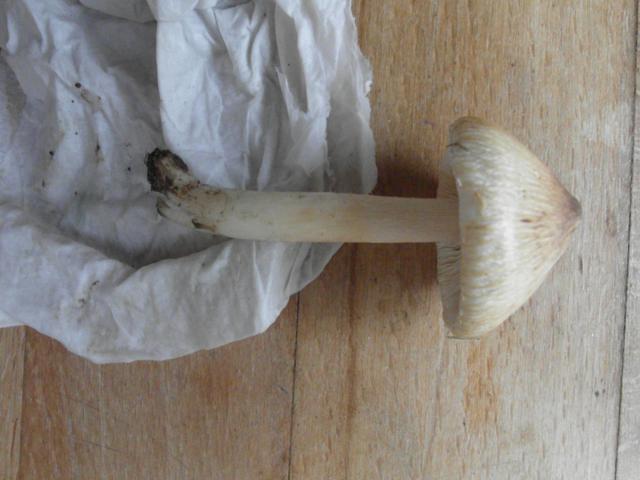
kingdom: Fungi
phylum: Basidiomycota
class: Agaricomycetes
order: Agaricales
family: Inocybaceae
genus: Pseudosperma
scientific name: Pseudosperma perlatum
